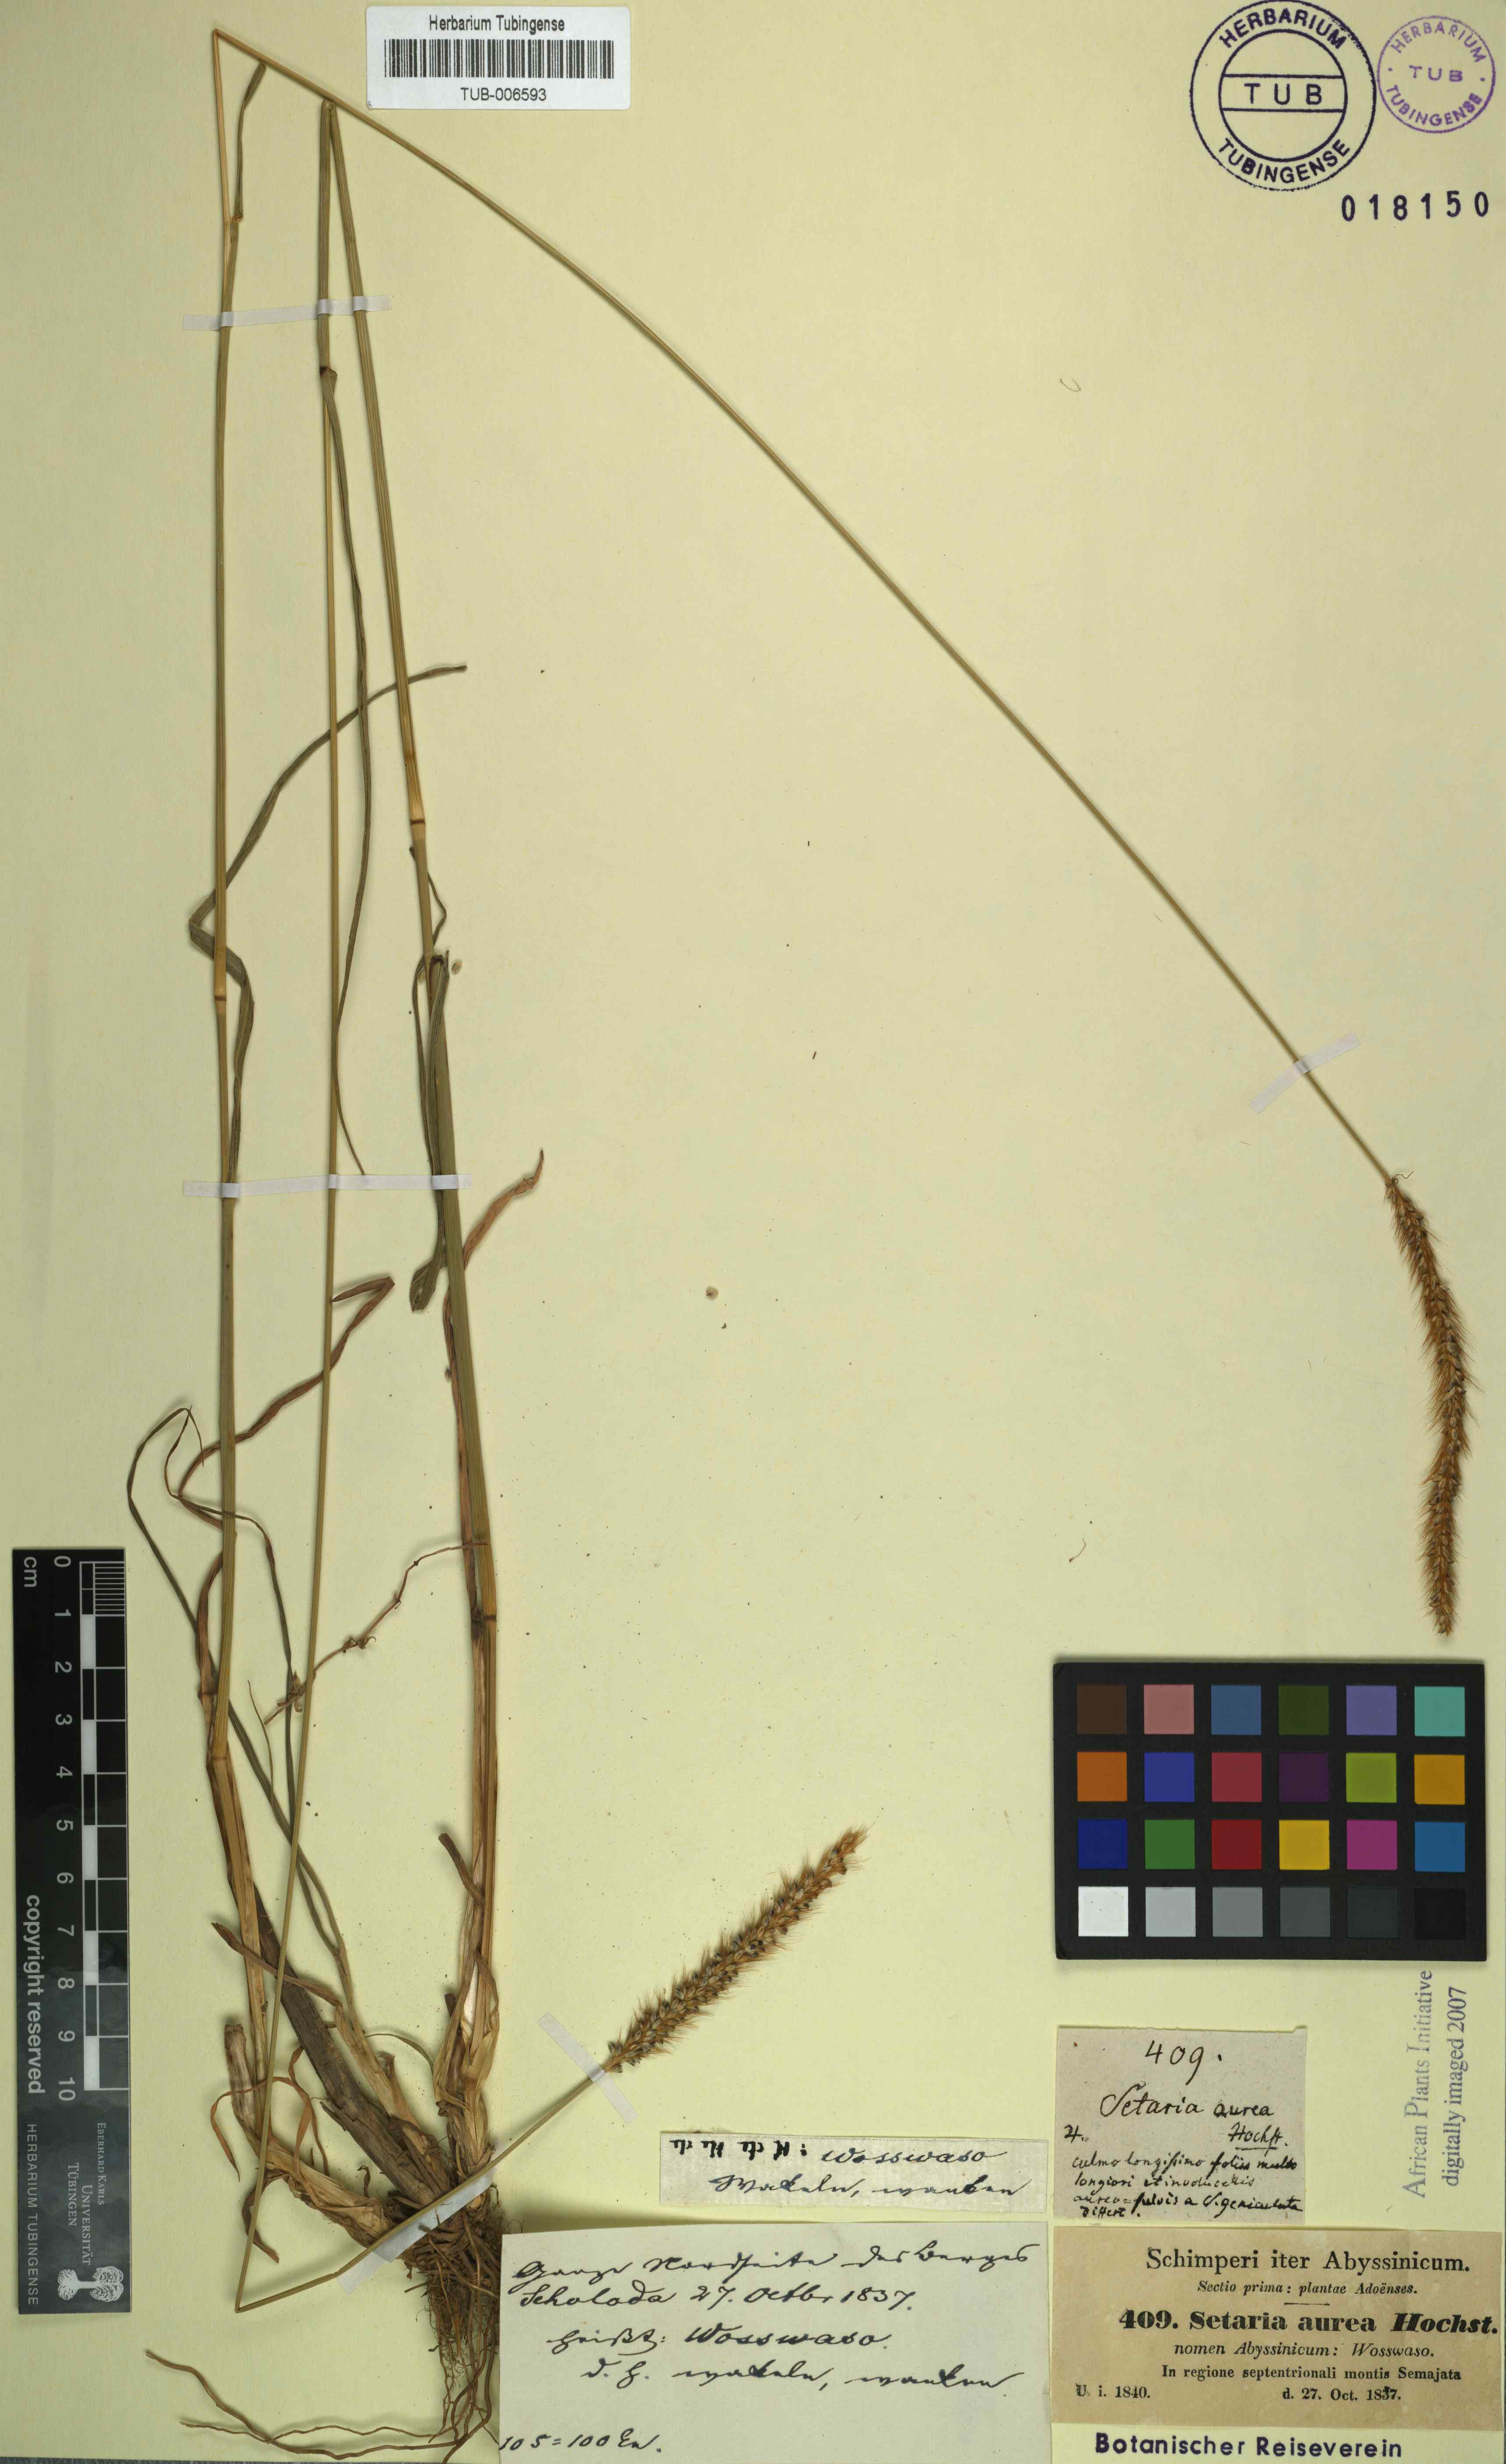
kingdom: Plantae
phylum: Tracheophyta
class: Liliopsida
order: Poales
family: Poaceae
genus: Setaria
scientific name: Setaria pumila
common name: Yellow bristle-grass
